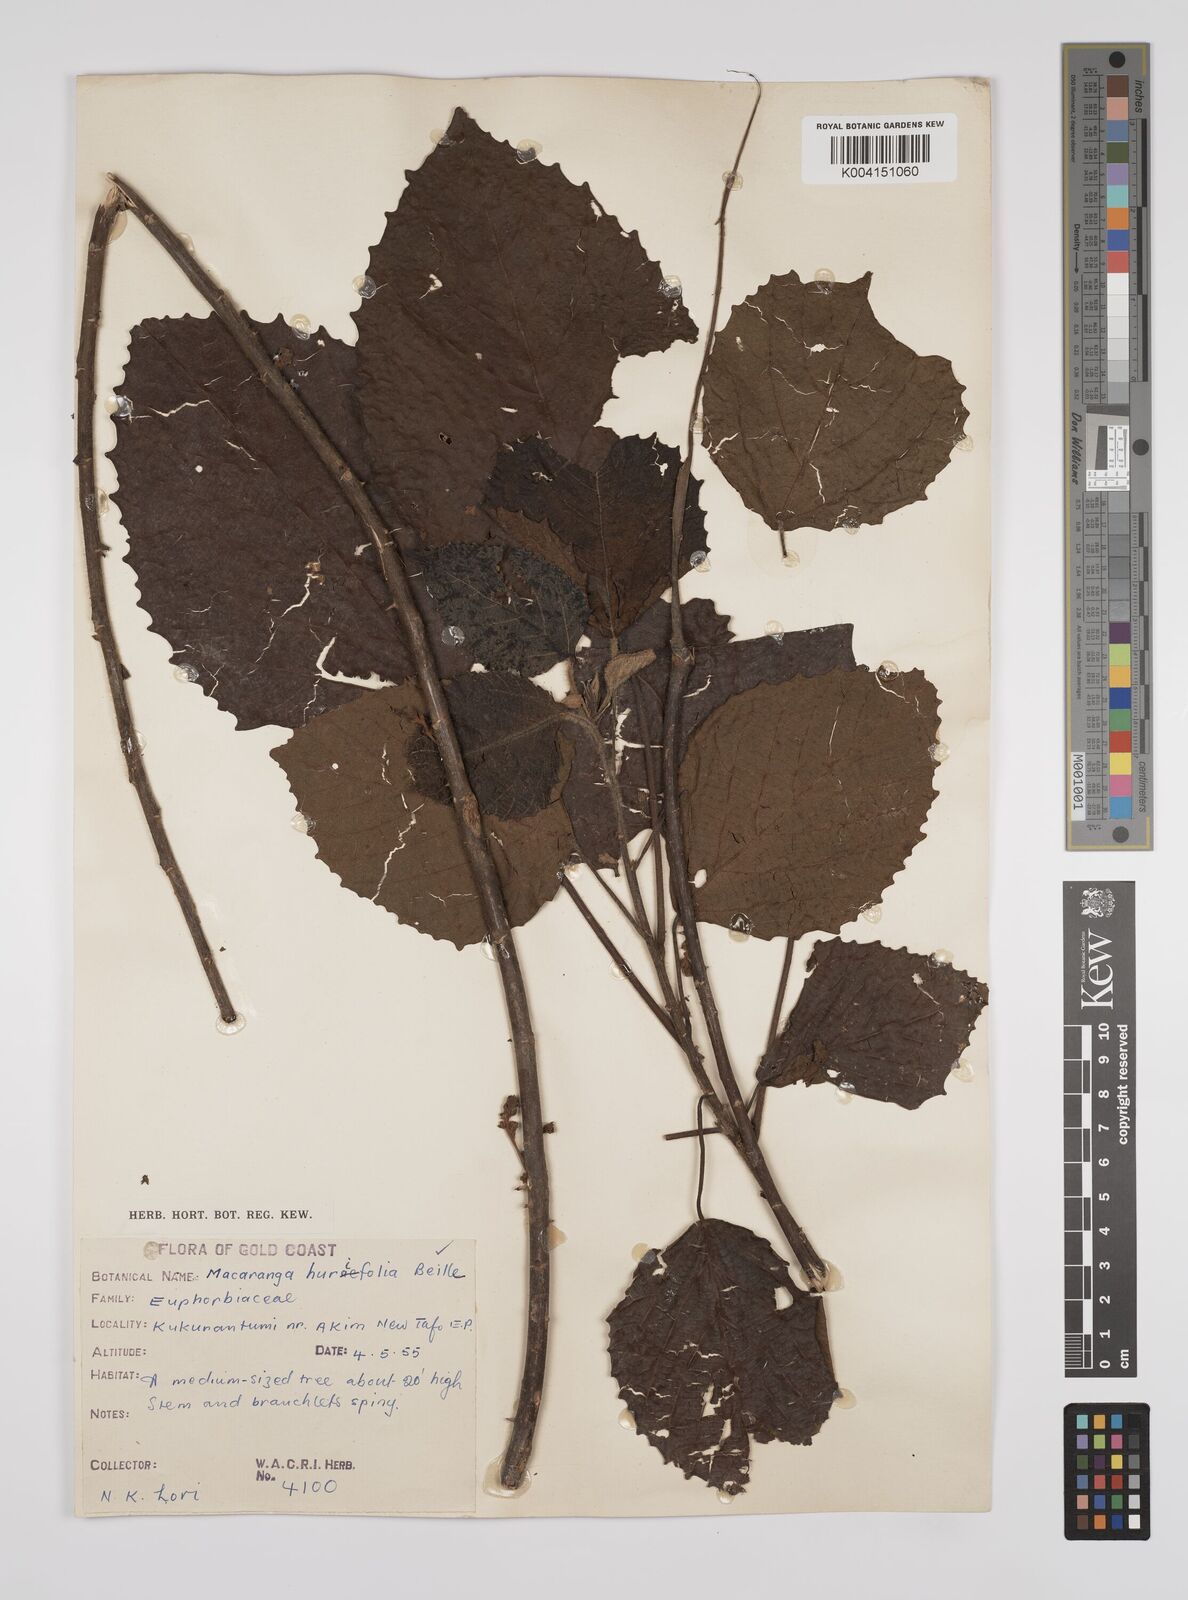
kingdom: Plantae
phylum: Tracheophyta
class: Magnoliopsida
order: Malpighiales
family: Euphorbiaceae
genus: Macaranga
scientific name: Macaranga hurifolia
